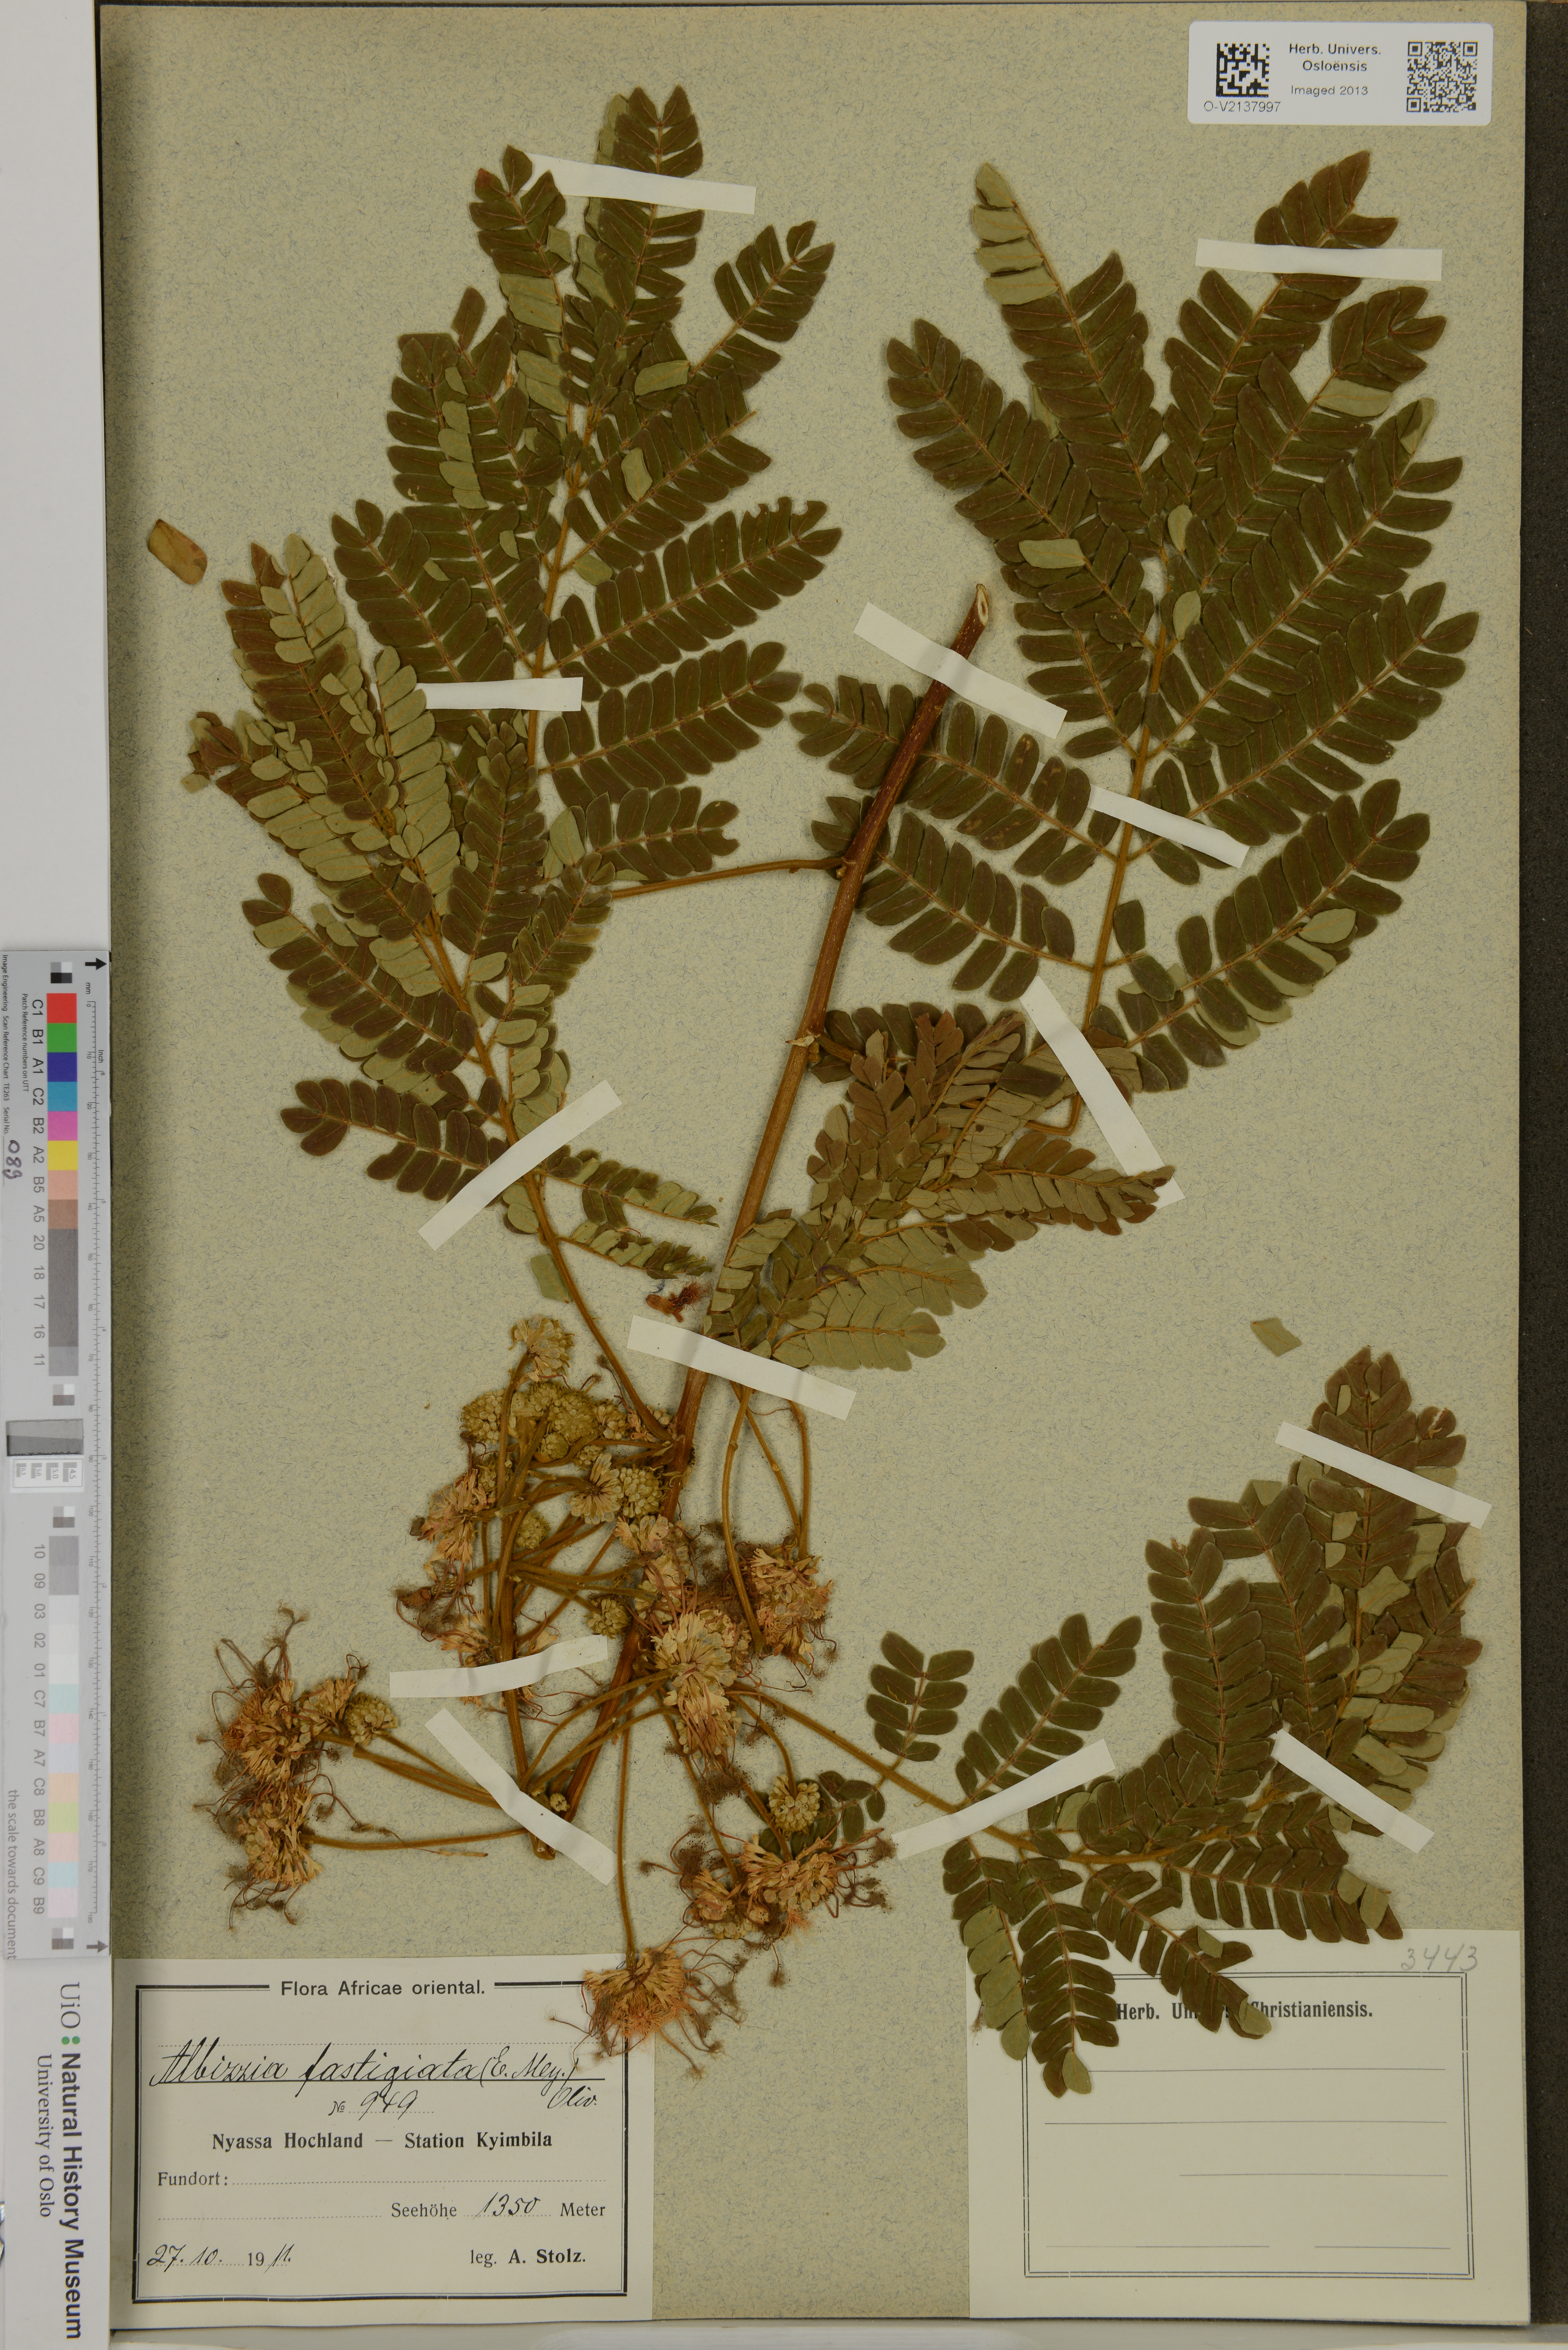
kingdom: Plantae
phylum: Tracheophyta
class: Magnoliopsida
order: Fabales
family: Fabaceae
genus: Albizia
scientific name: Albizia adianthifolia
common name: West african albizia
